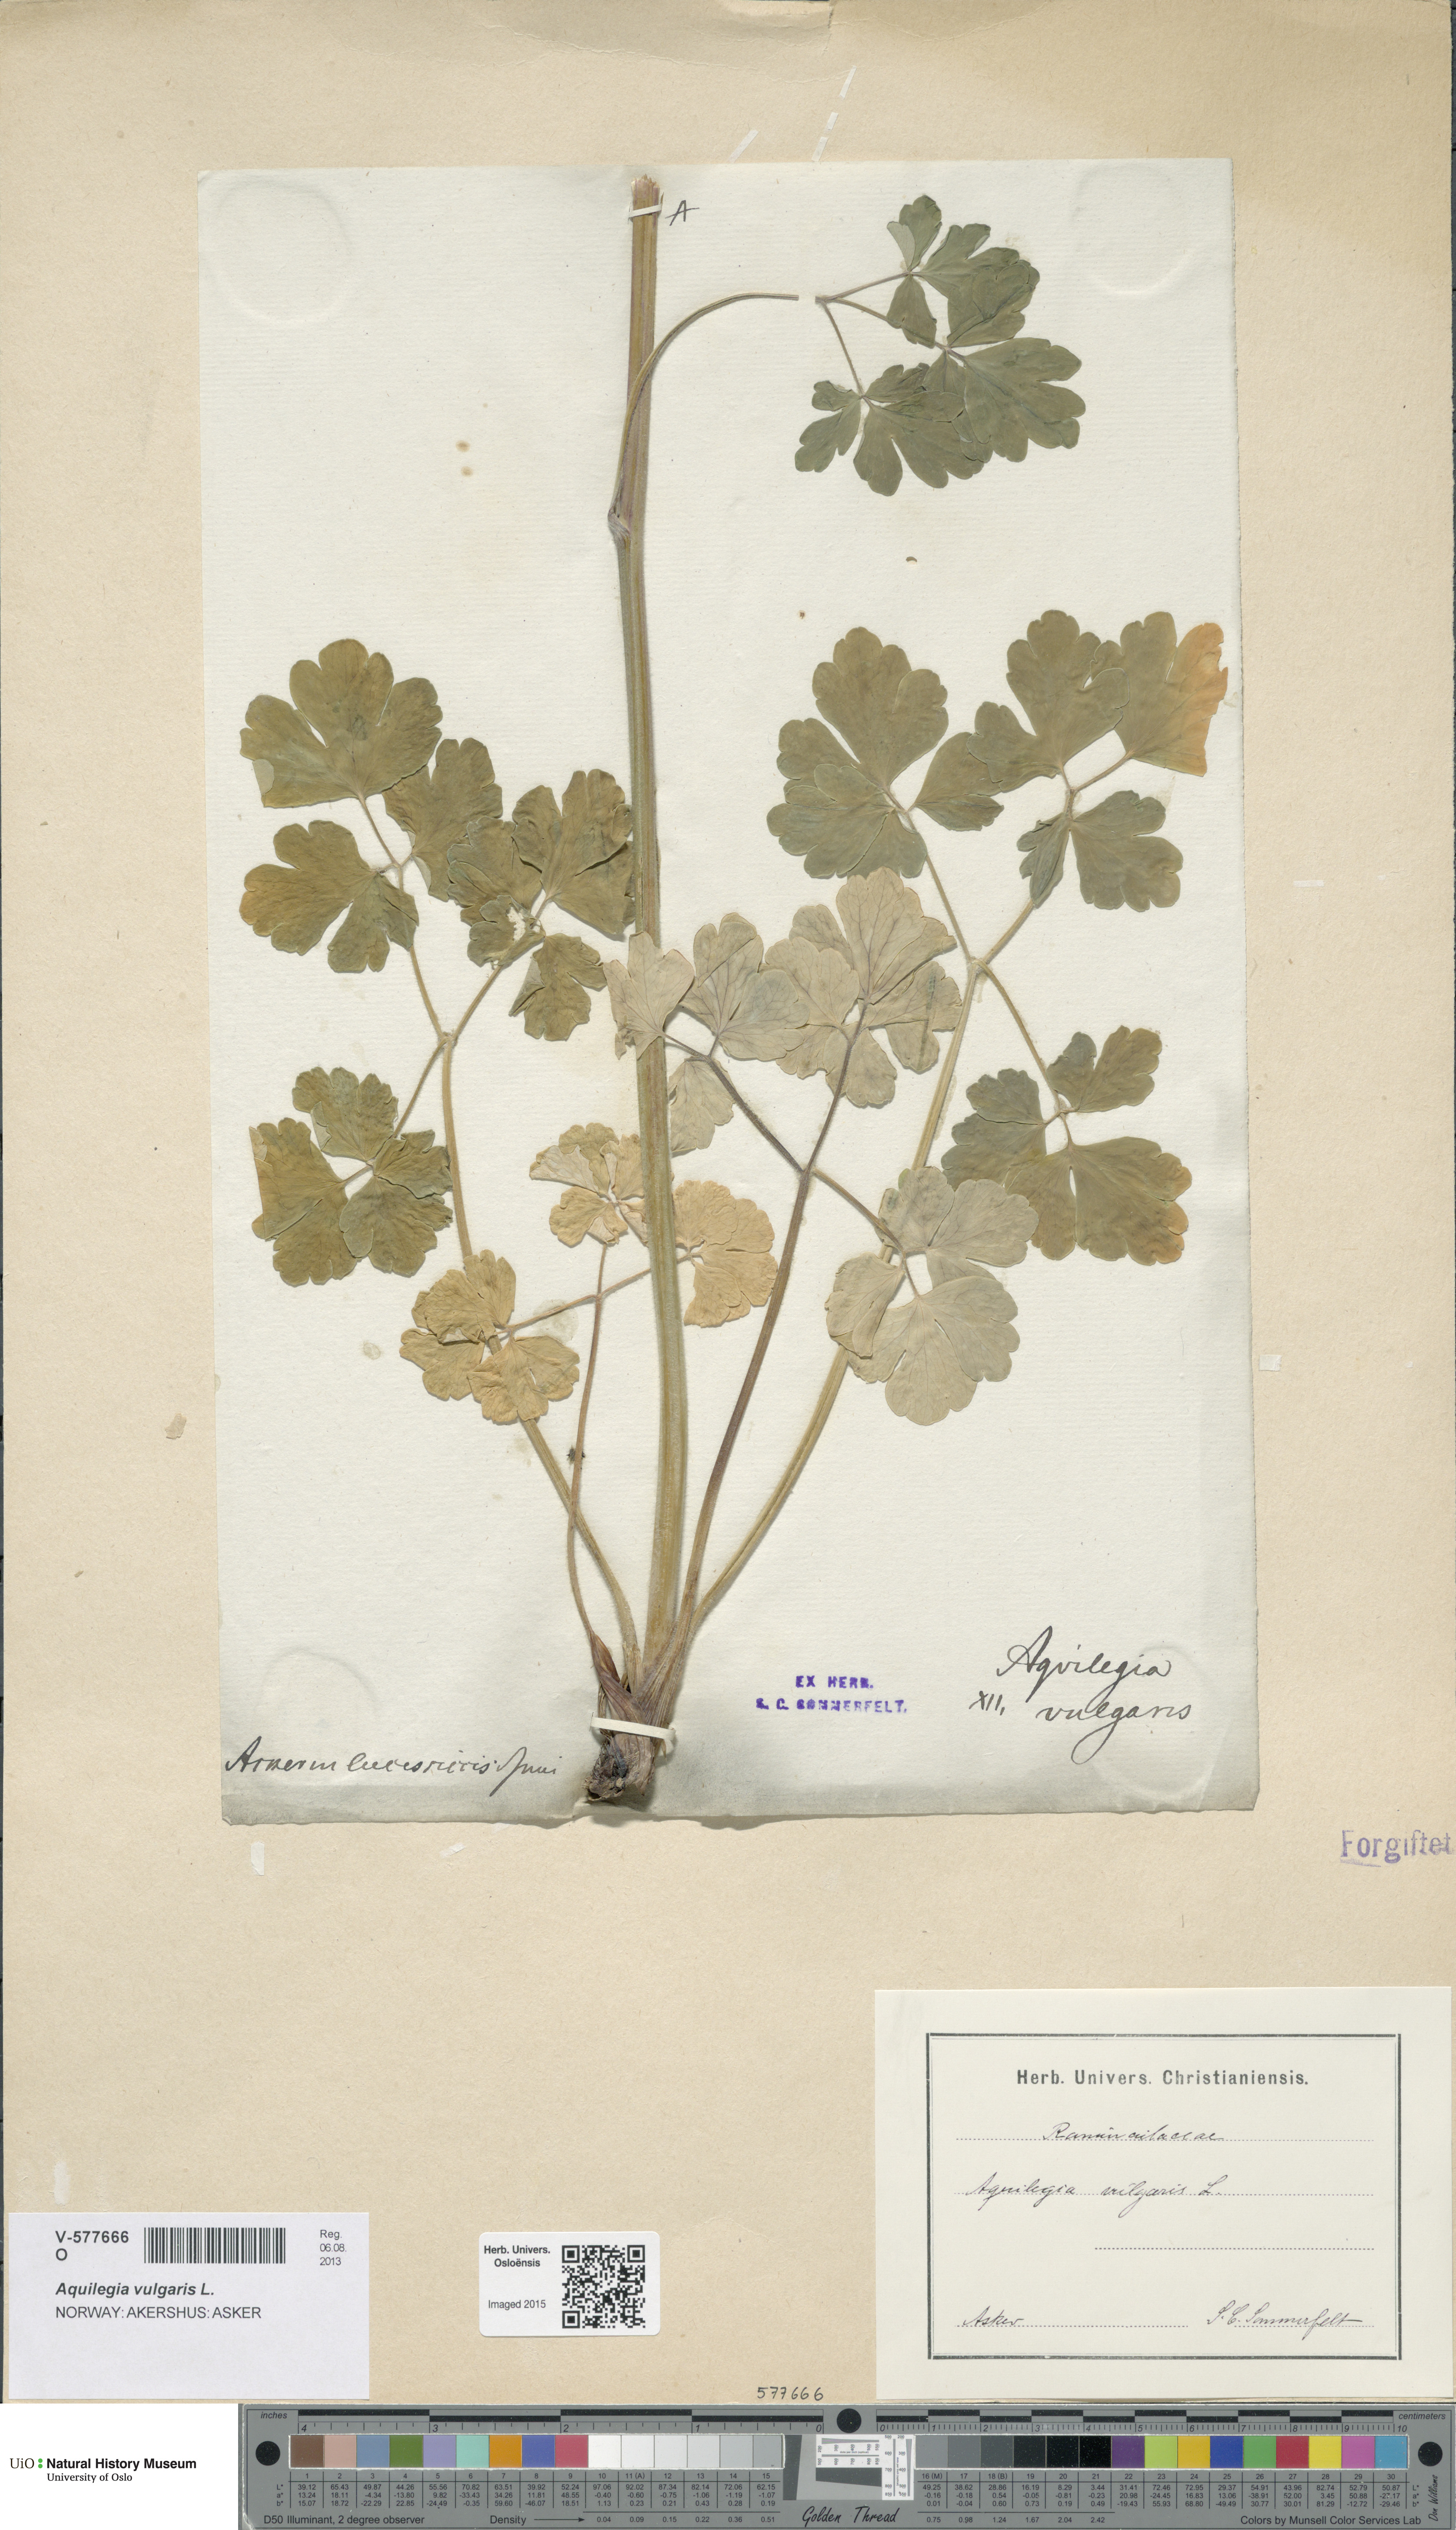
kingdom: Plantae
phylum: Tracheophyta
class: Magnoliopsida
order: Ranunculales
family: Ranunculaceae
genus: Aquilegia
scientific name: Aquilegia vulgaris
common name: Columbine
